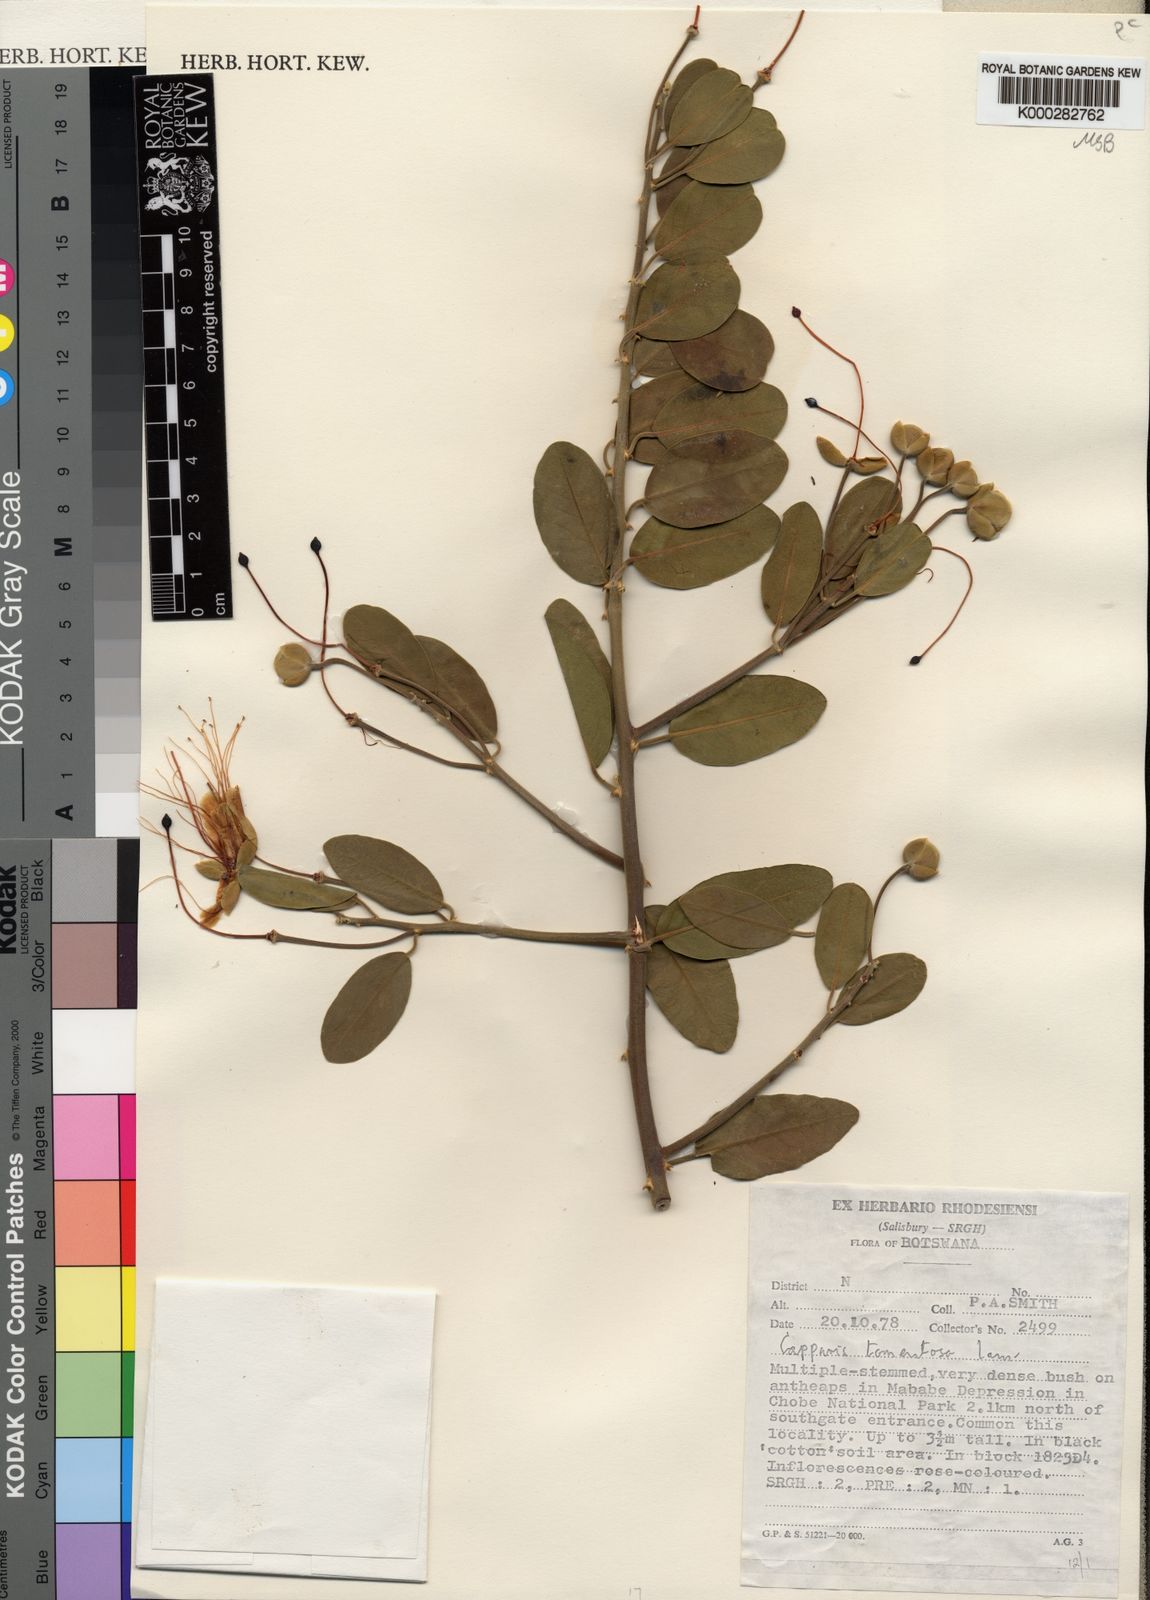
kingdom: Plantae
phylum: Tracheophyta
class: Magnoliopsida
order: Brassicales
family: Capparaceae
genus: Capparis
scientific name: Capparis tomentosa
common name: African caper
